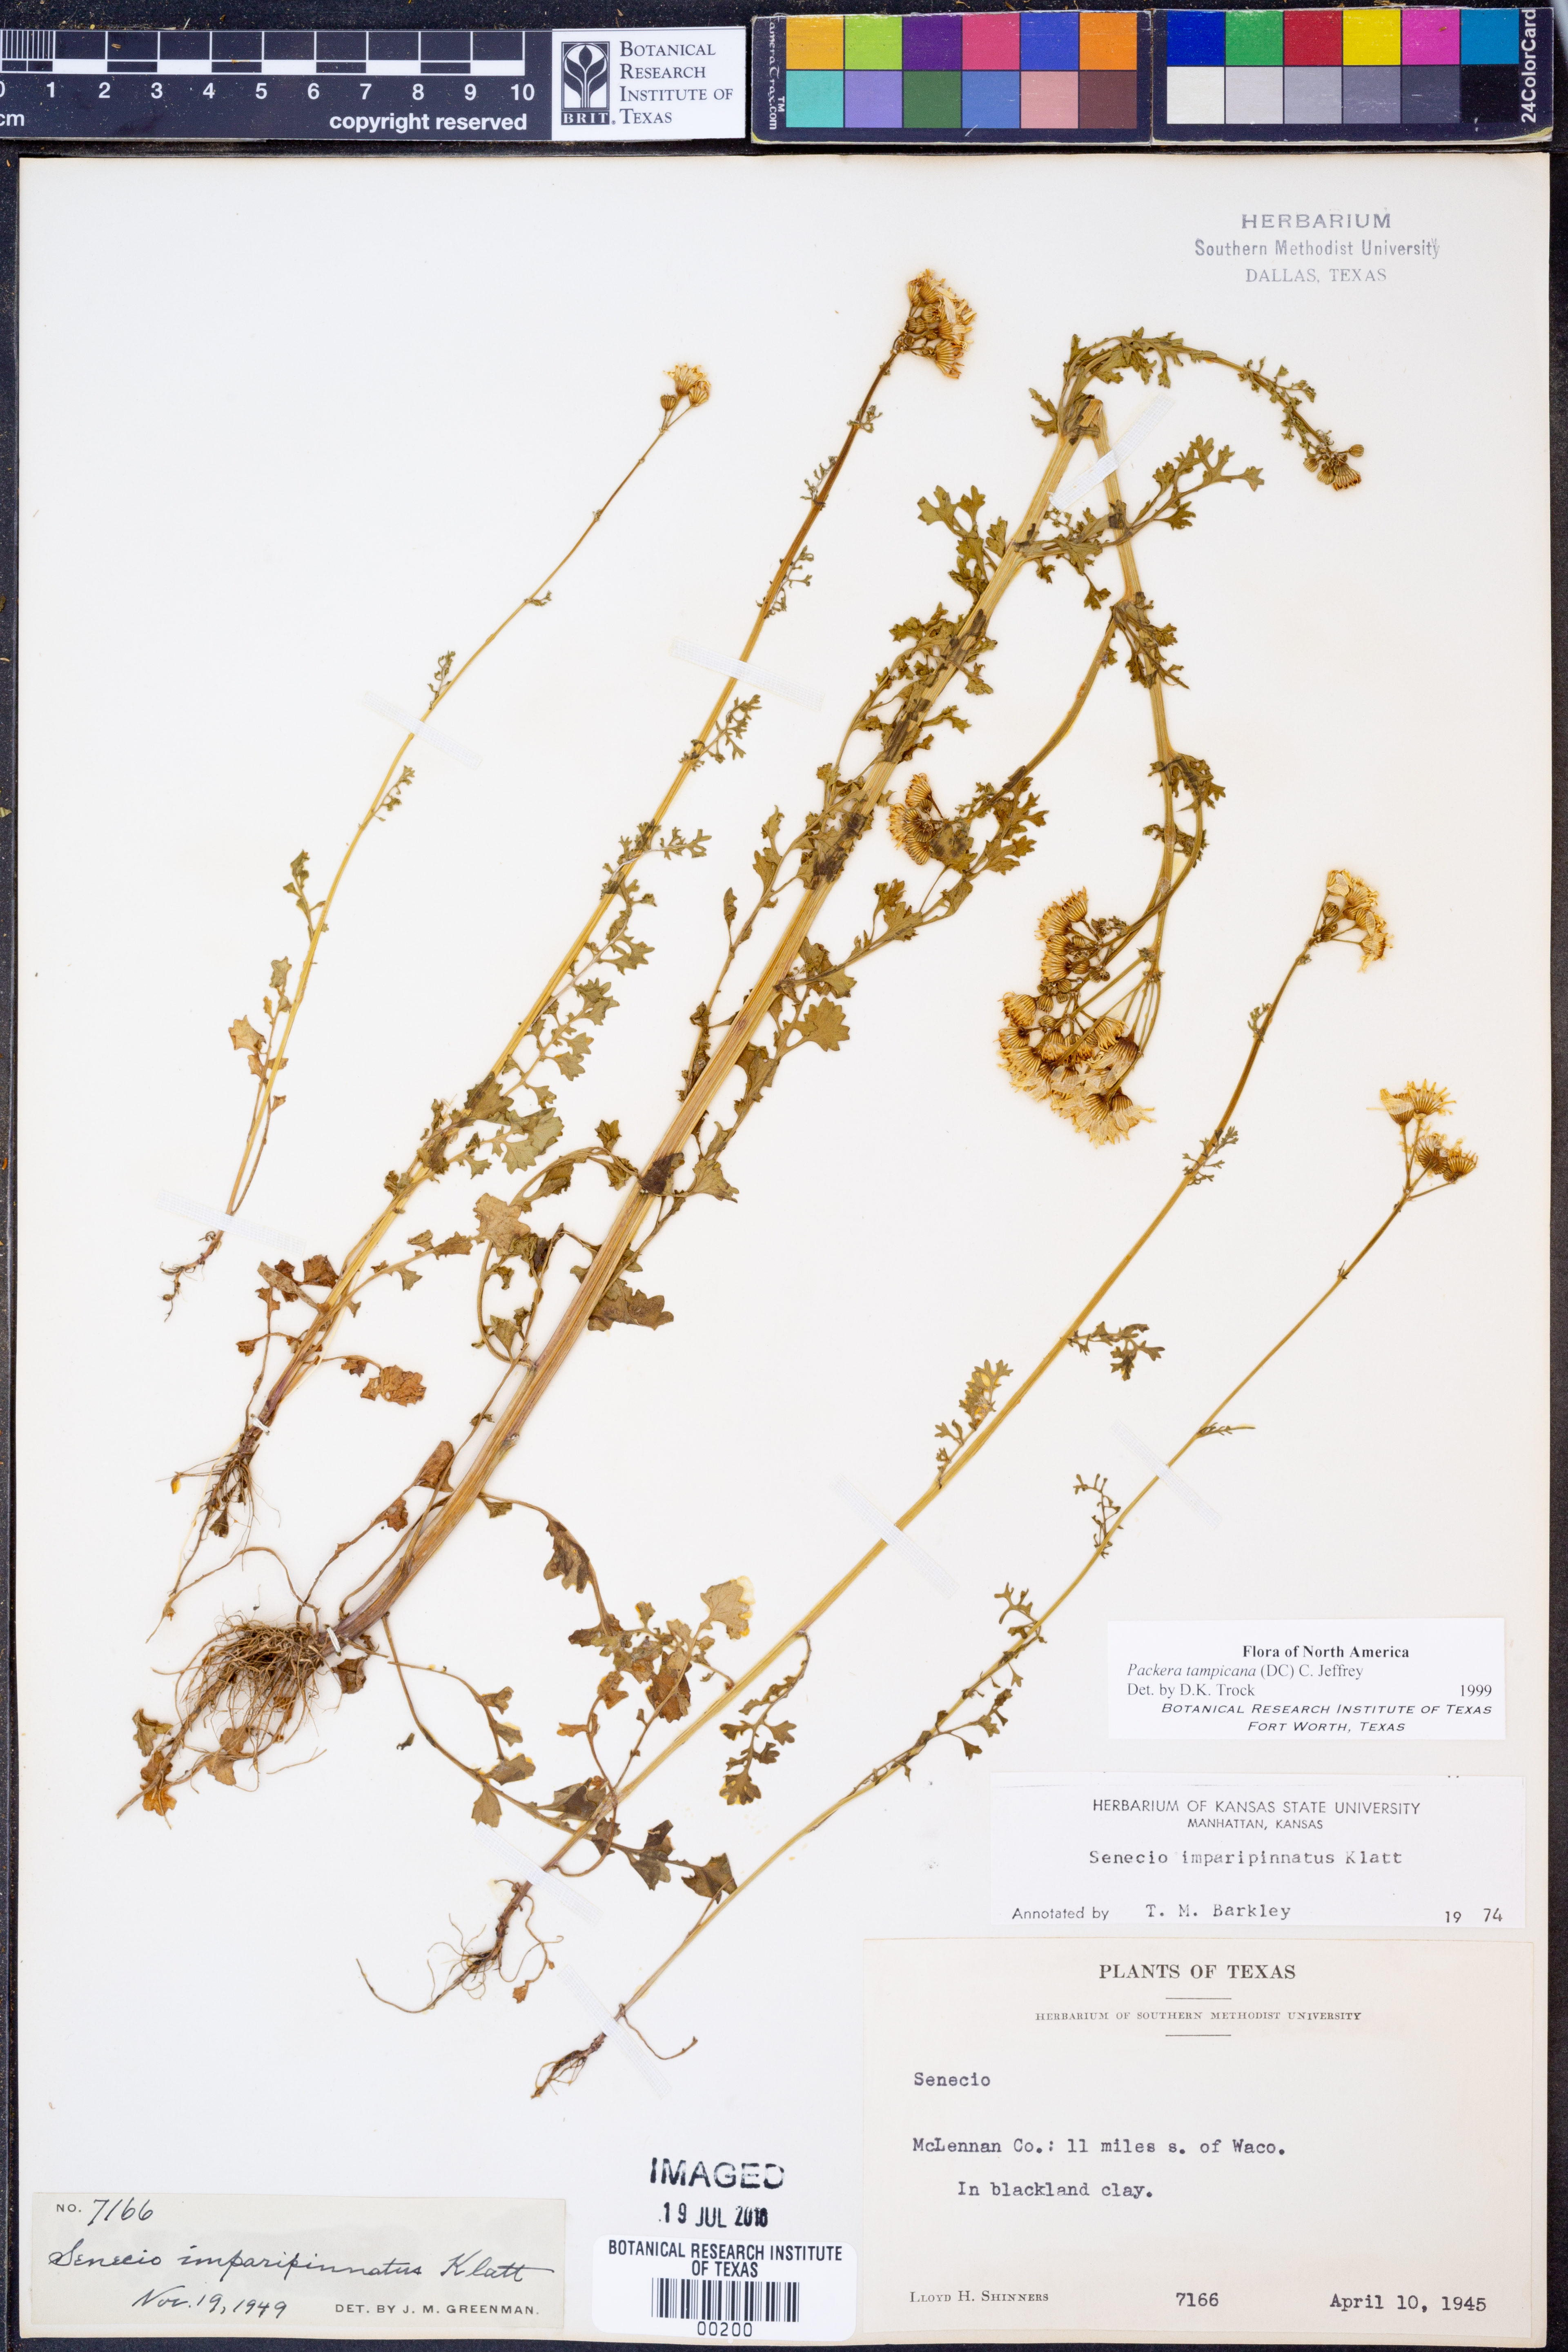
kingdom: Plantae
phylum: Tracheophyta
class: Magnoliopsida
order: Asterales
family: Asteraceae
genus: Packera
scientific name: Packera tampicana
